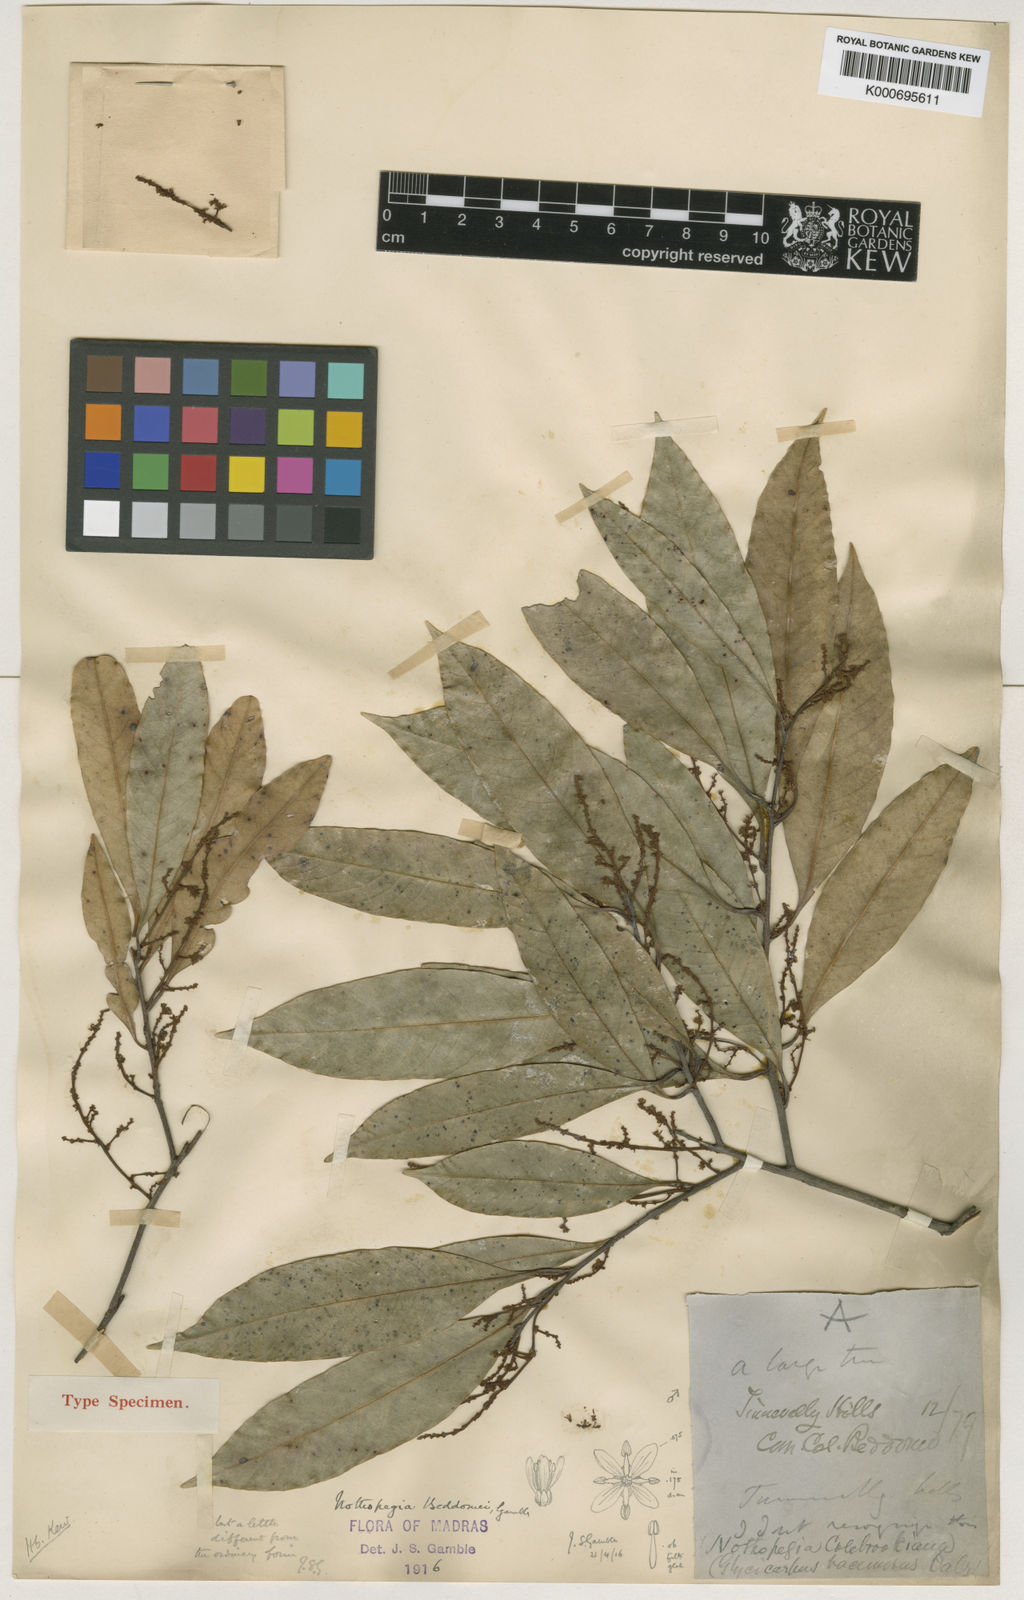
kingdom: Plantae
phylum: Tracheophyta
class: Magnoliopsida
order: Sapindales
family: Anacardiaceae
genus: Nothopegia
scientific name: Nothopegia beddomei
